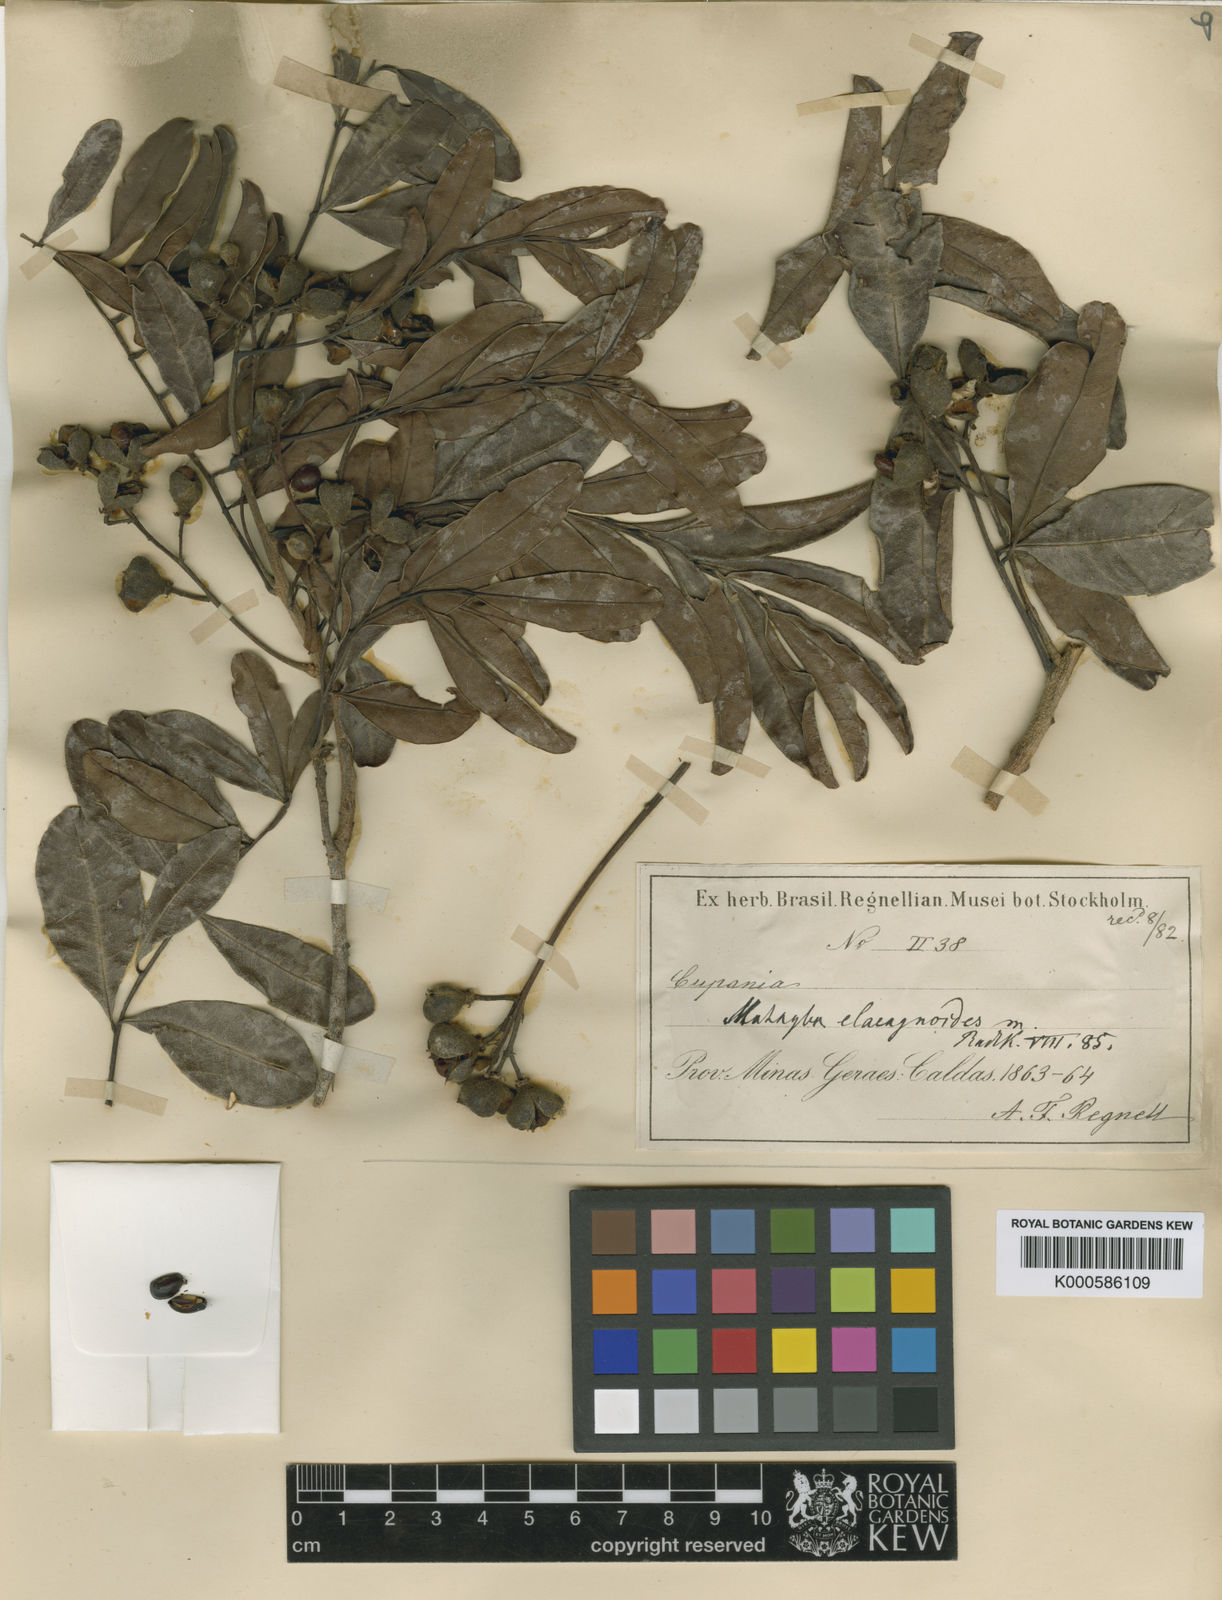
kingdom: Plantae
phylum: Tracheophyta
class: Magnoliopsida
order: Sapindales
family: Sapindaceae
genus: Matayba
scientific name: Matayba elaeagnoides
